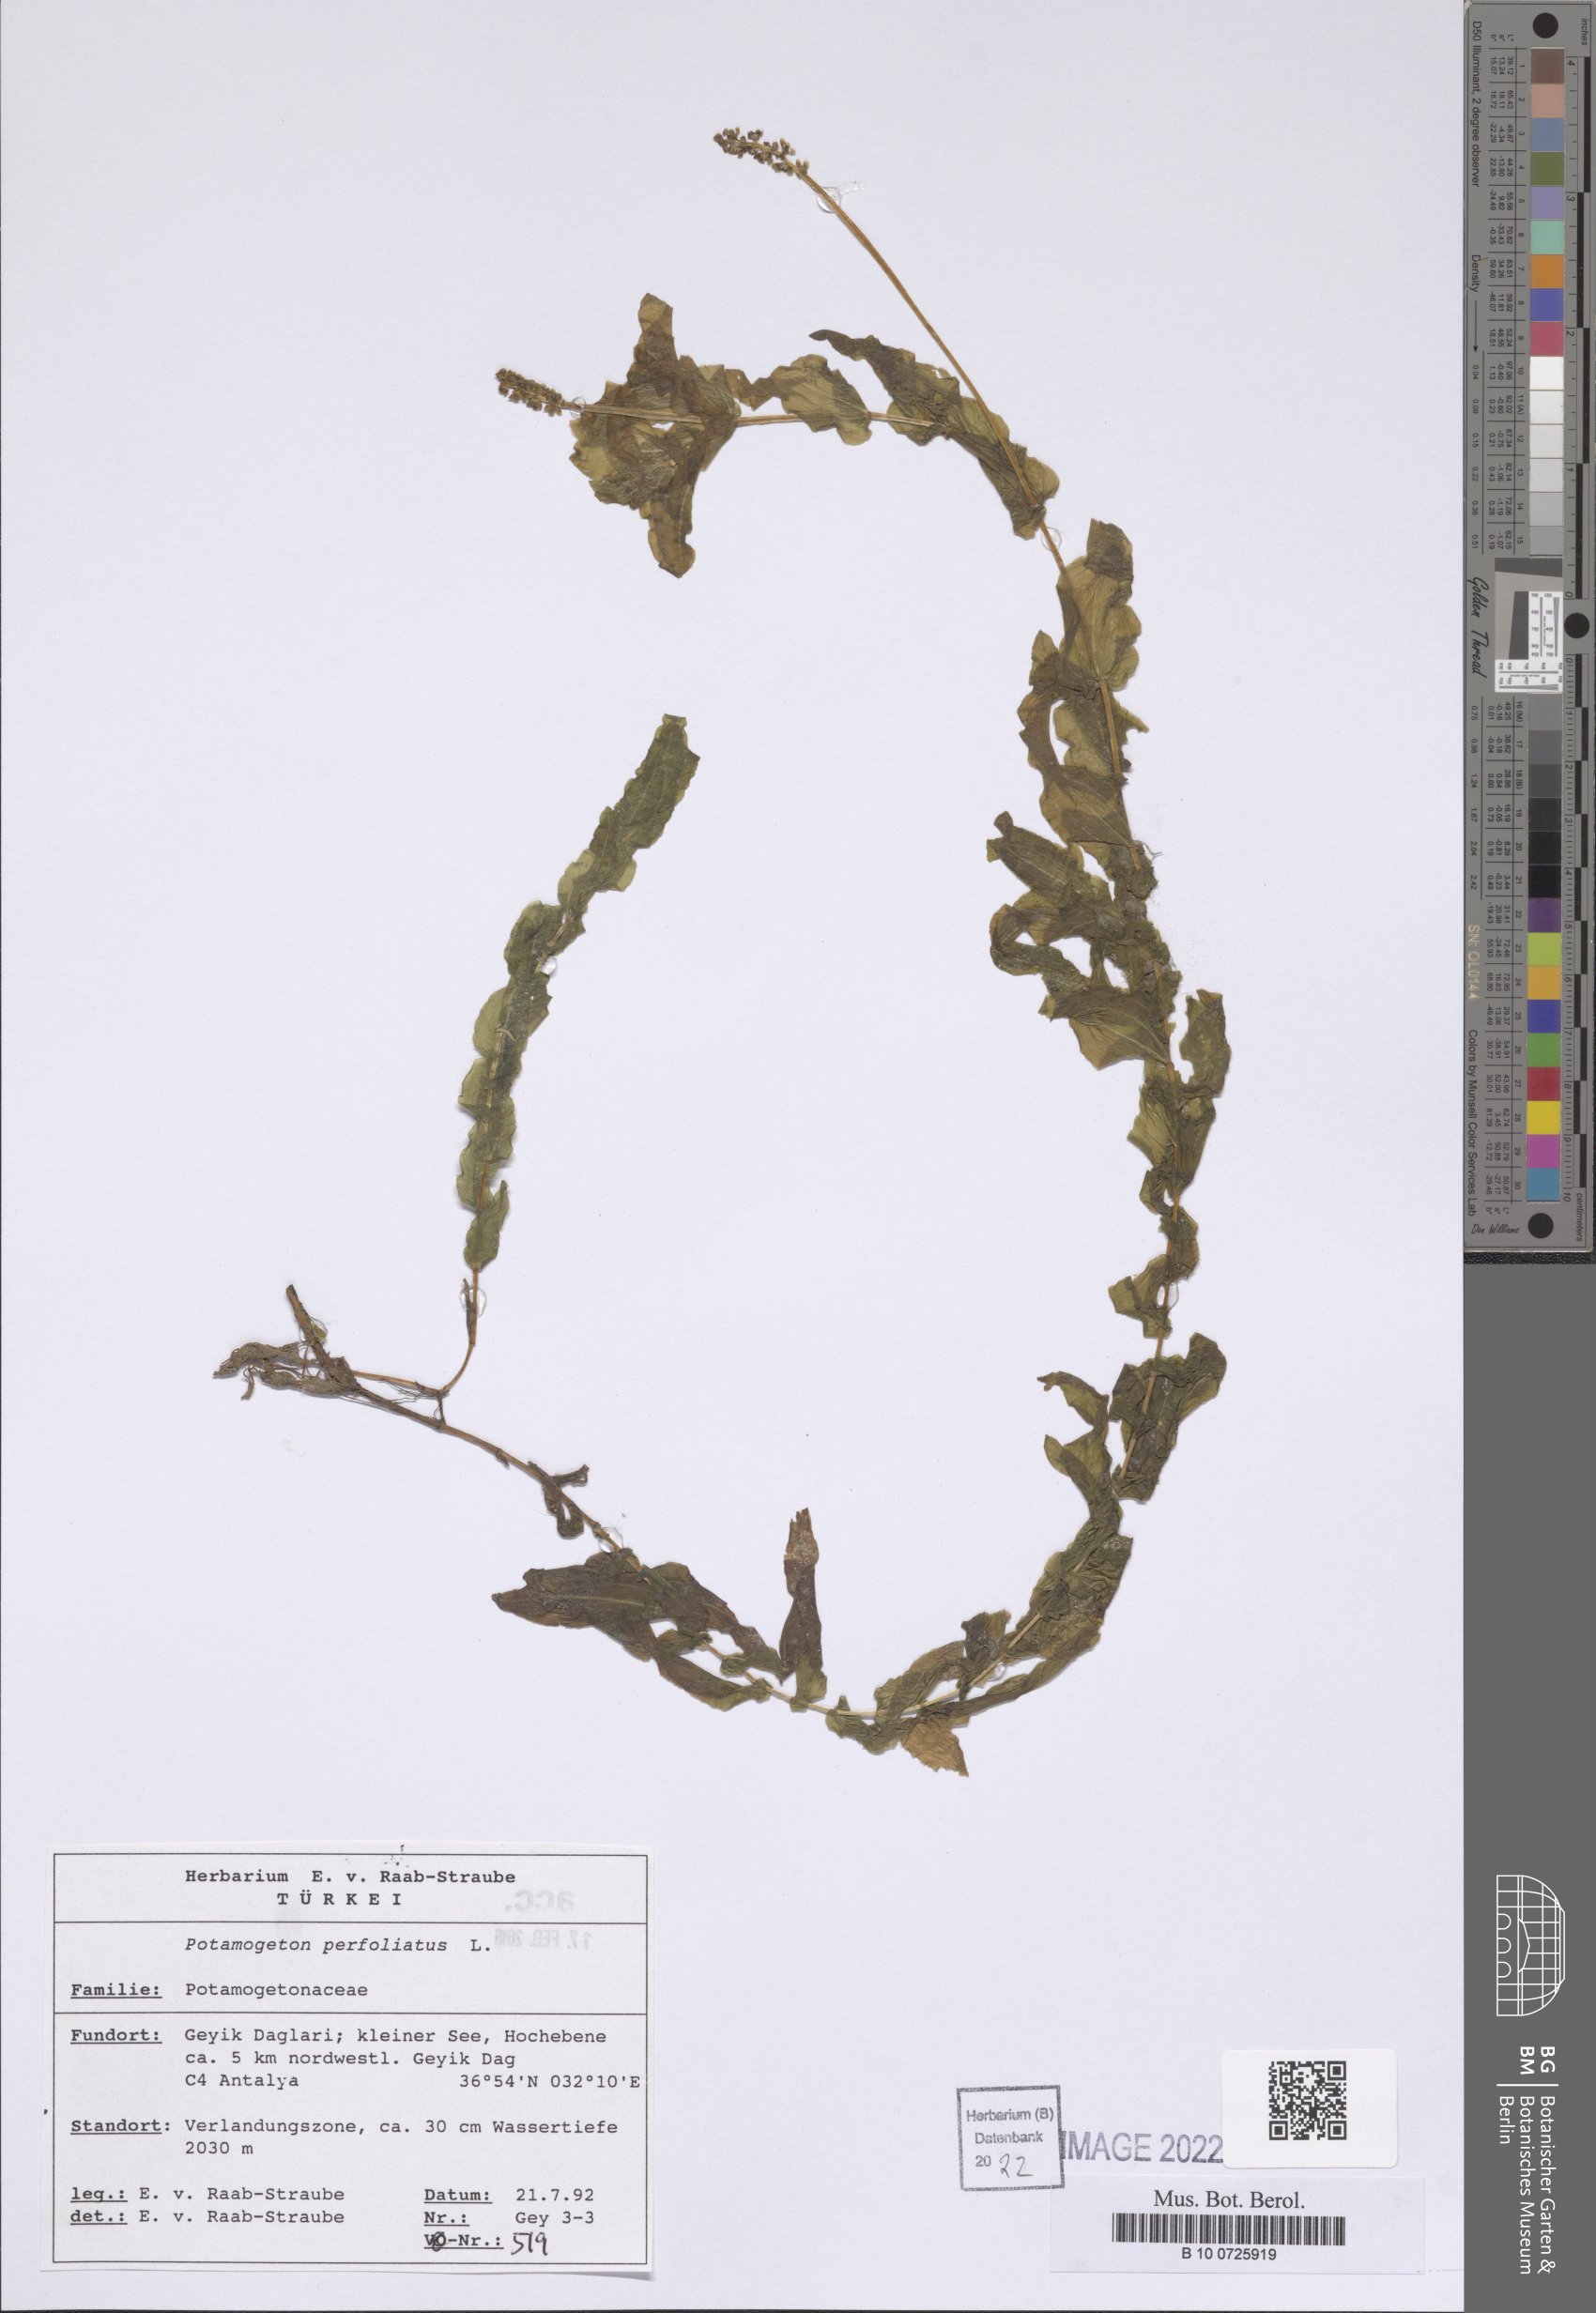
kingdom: Plantae
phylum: Tracheophyta
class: Liliopsida
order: Alismatales
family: Potamogetonaceae
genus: Potamogeton
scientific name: Potamogeton perfoliatus
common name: Perfoliate pondweed
